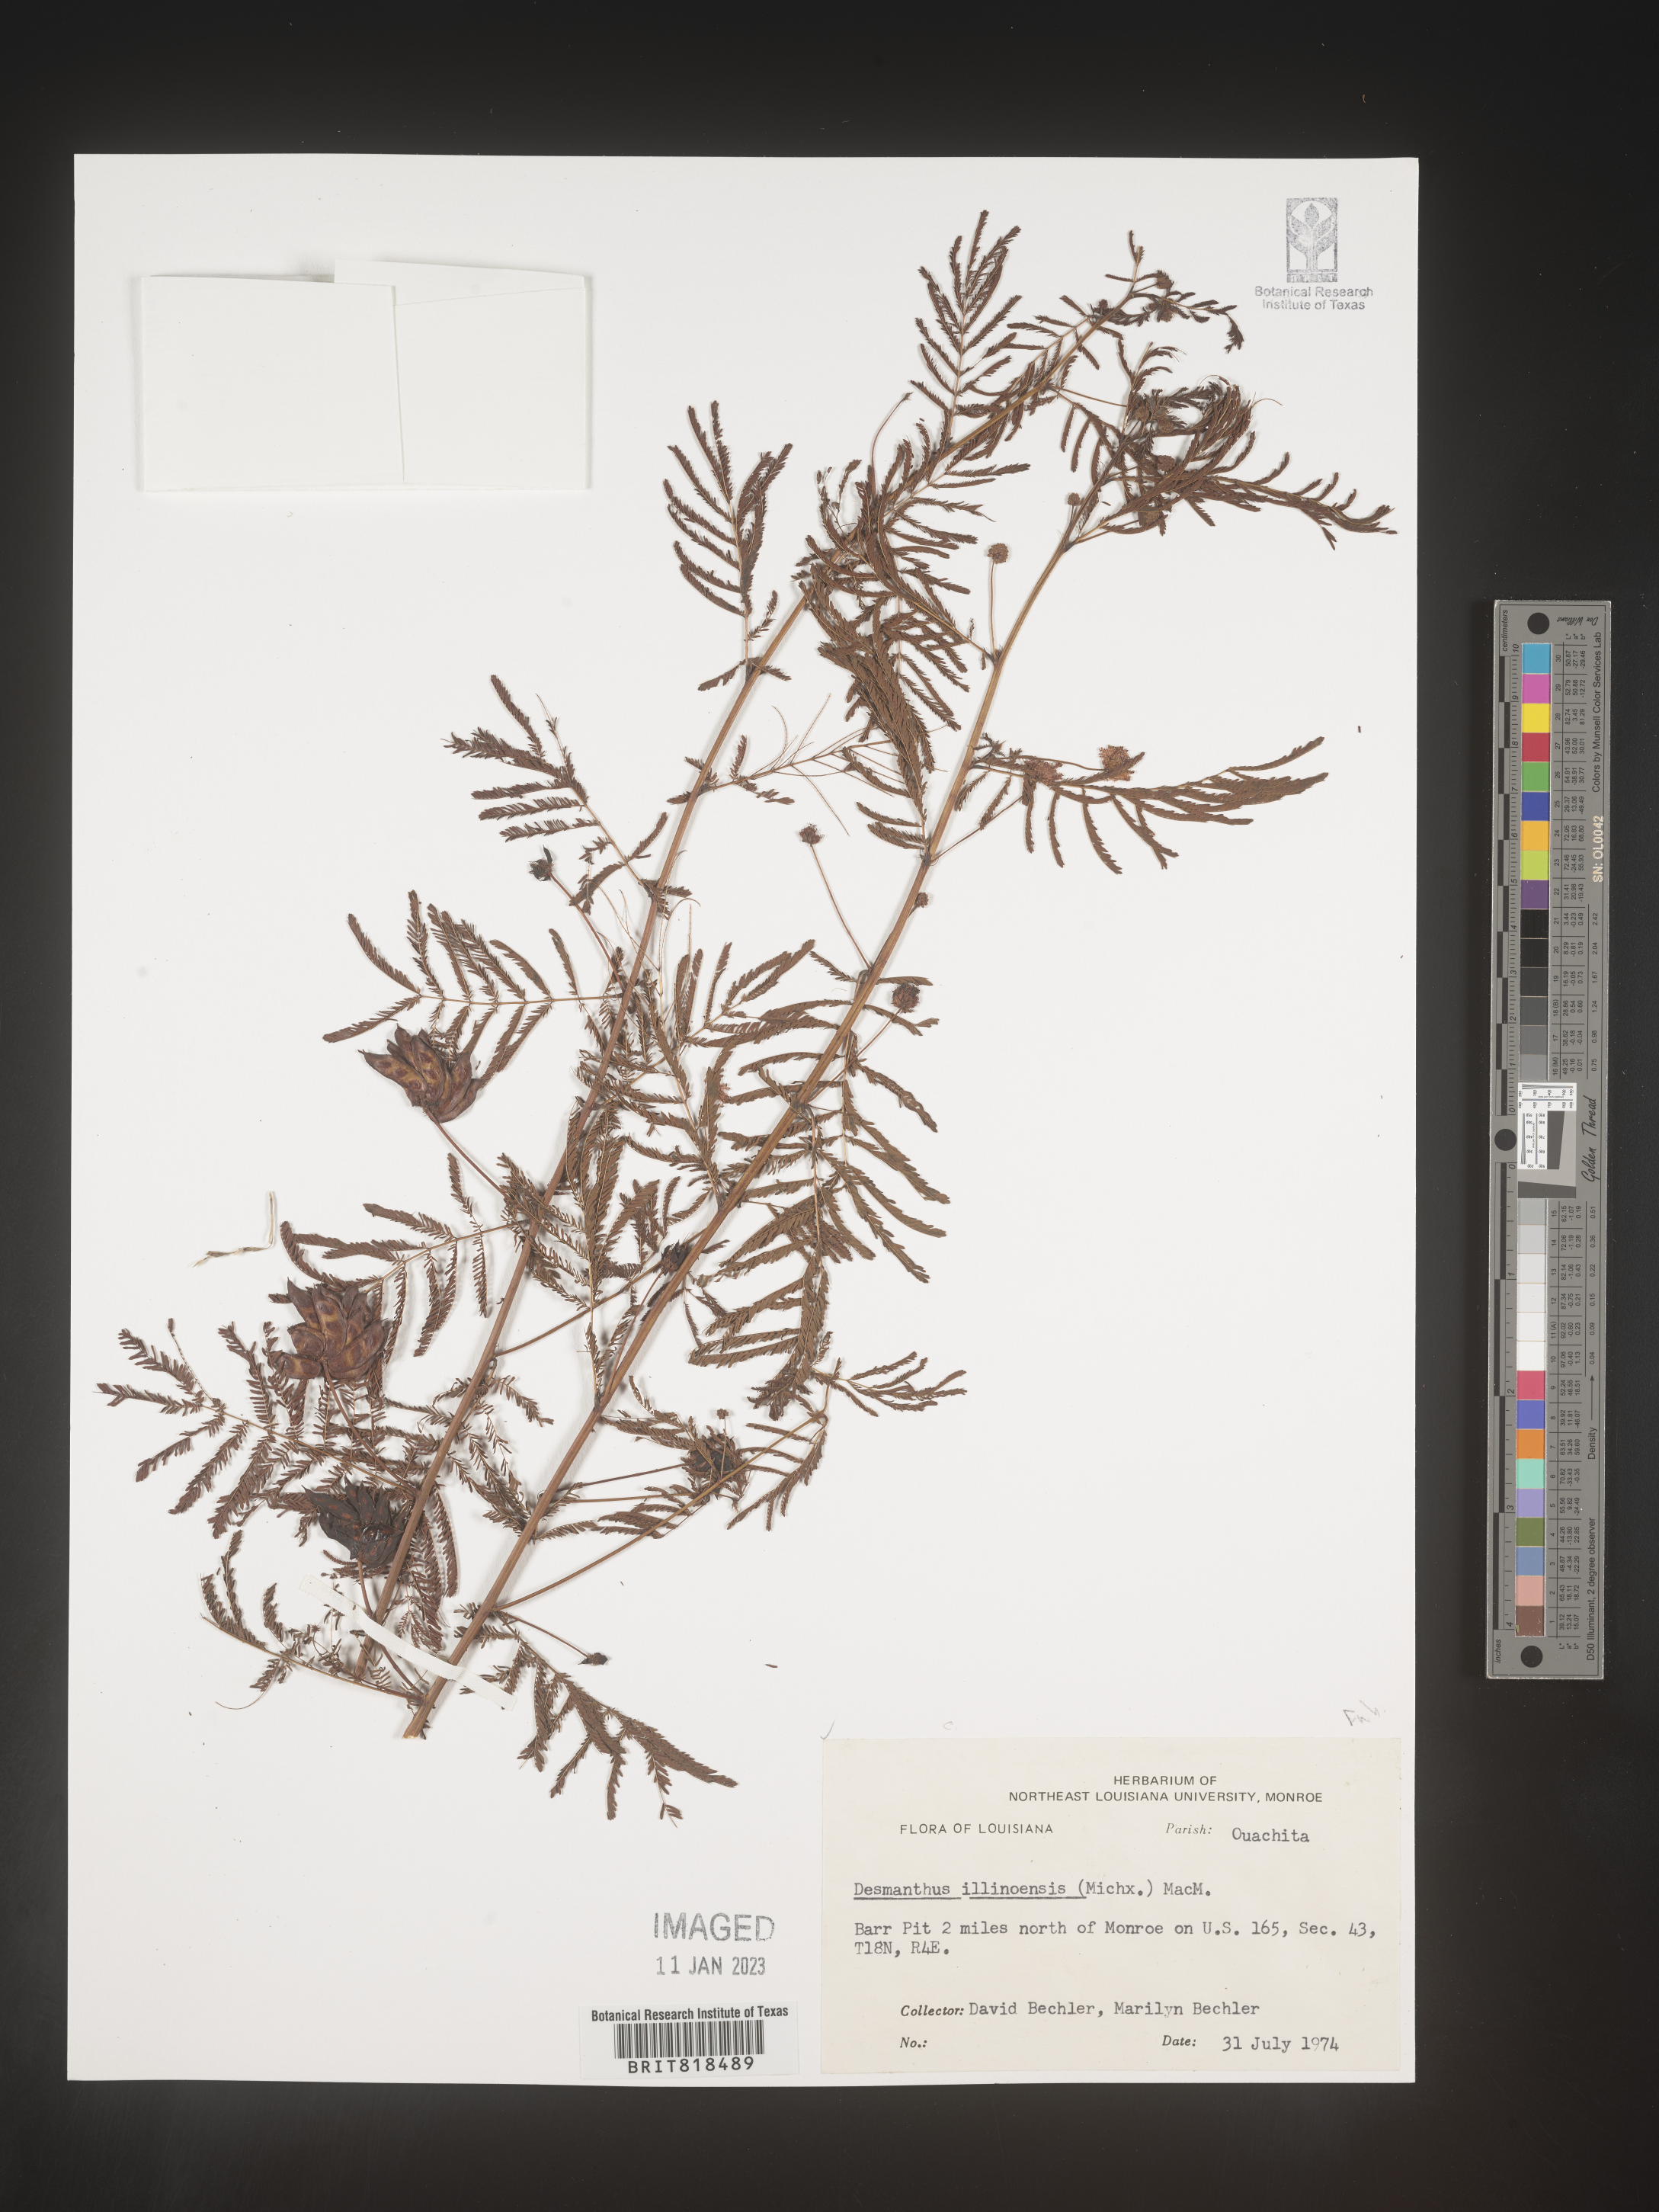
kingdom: Plantae
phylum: Tracheophyta
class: Magnoliopsida
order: Fabales
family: Fabaceae
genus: Desmanthus
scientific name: Desmanthus illinoensis
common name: Illinois bundle-flower
